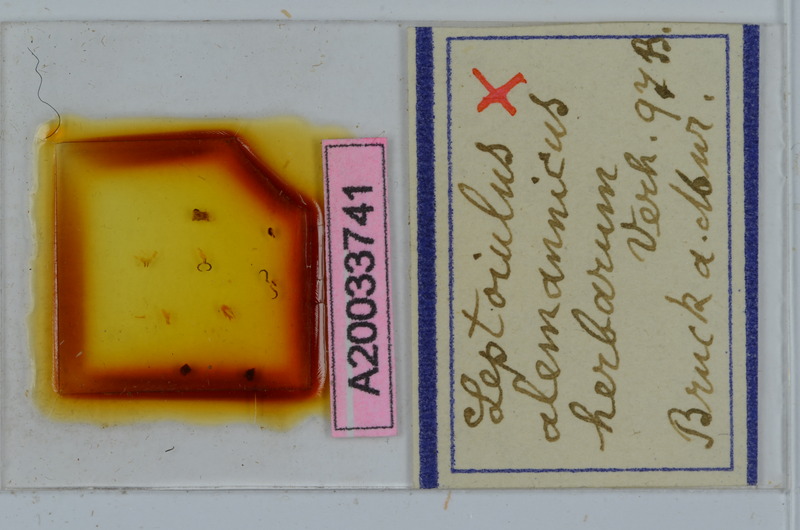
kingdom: Animalia
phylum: Arthropoda
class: Diplopoda
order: Julida
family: Julidae
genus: Leptoiulus
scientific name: Leptoiulus alemannicus
